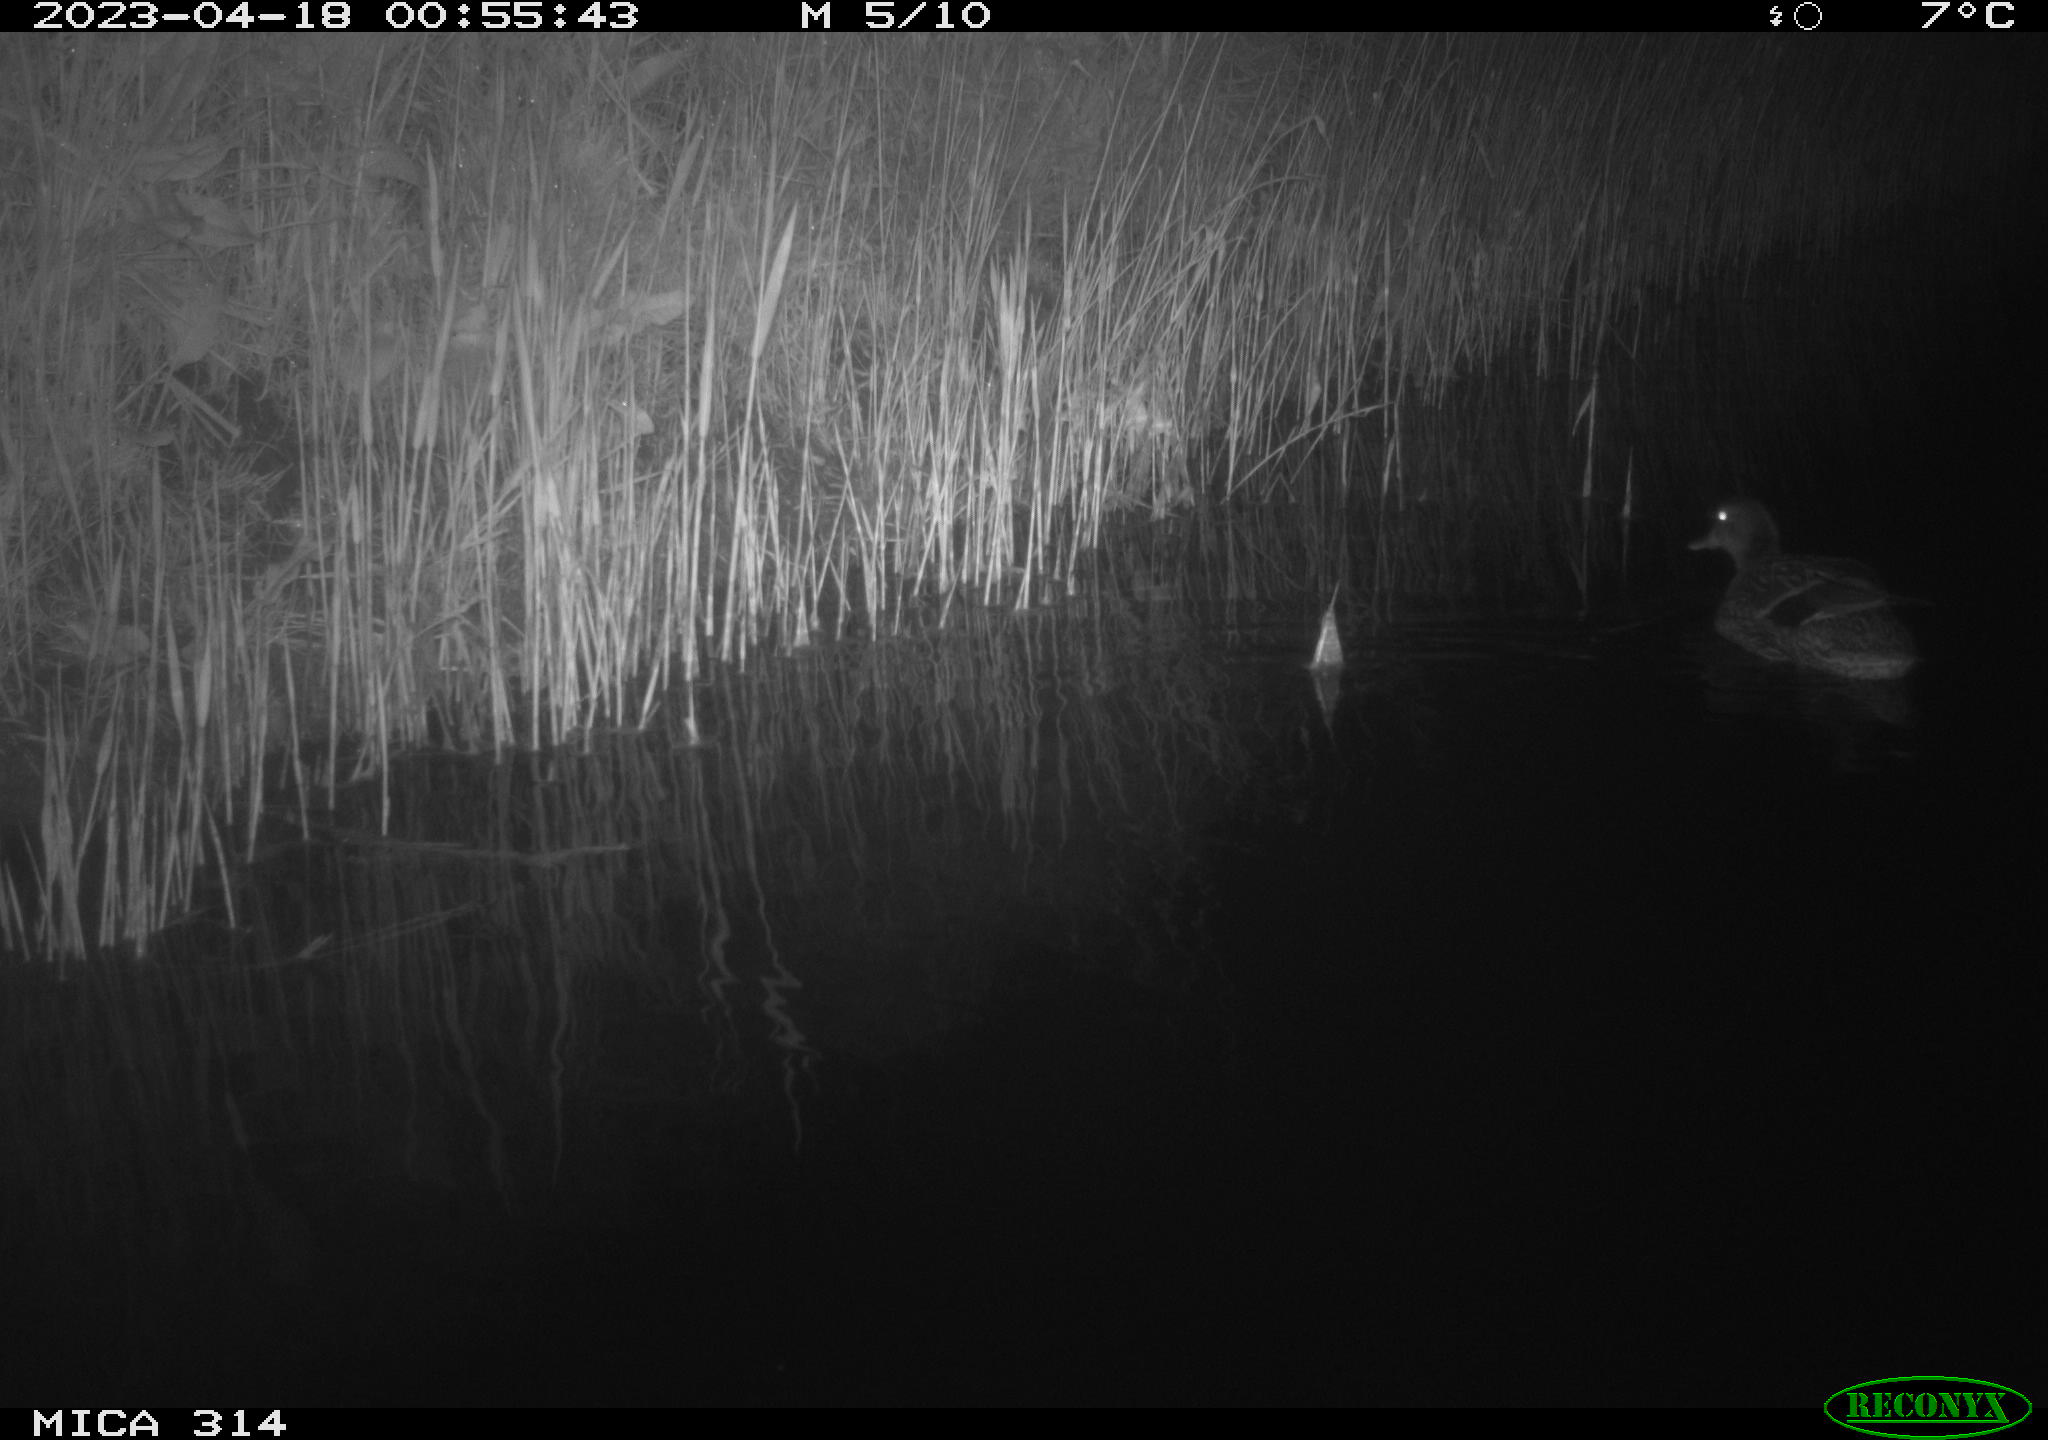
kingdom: Animalia
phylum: Chordata
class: Aves
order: Anseriformes
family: Anatidae
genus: Anas
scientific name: Anas
